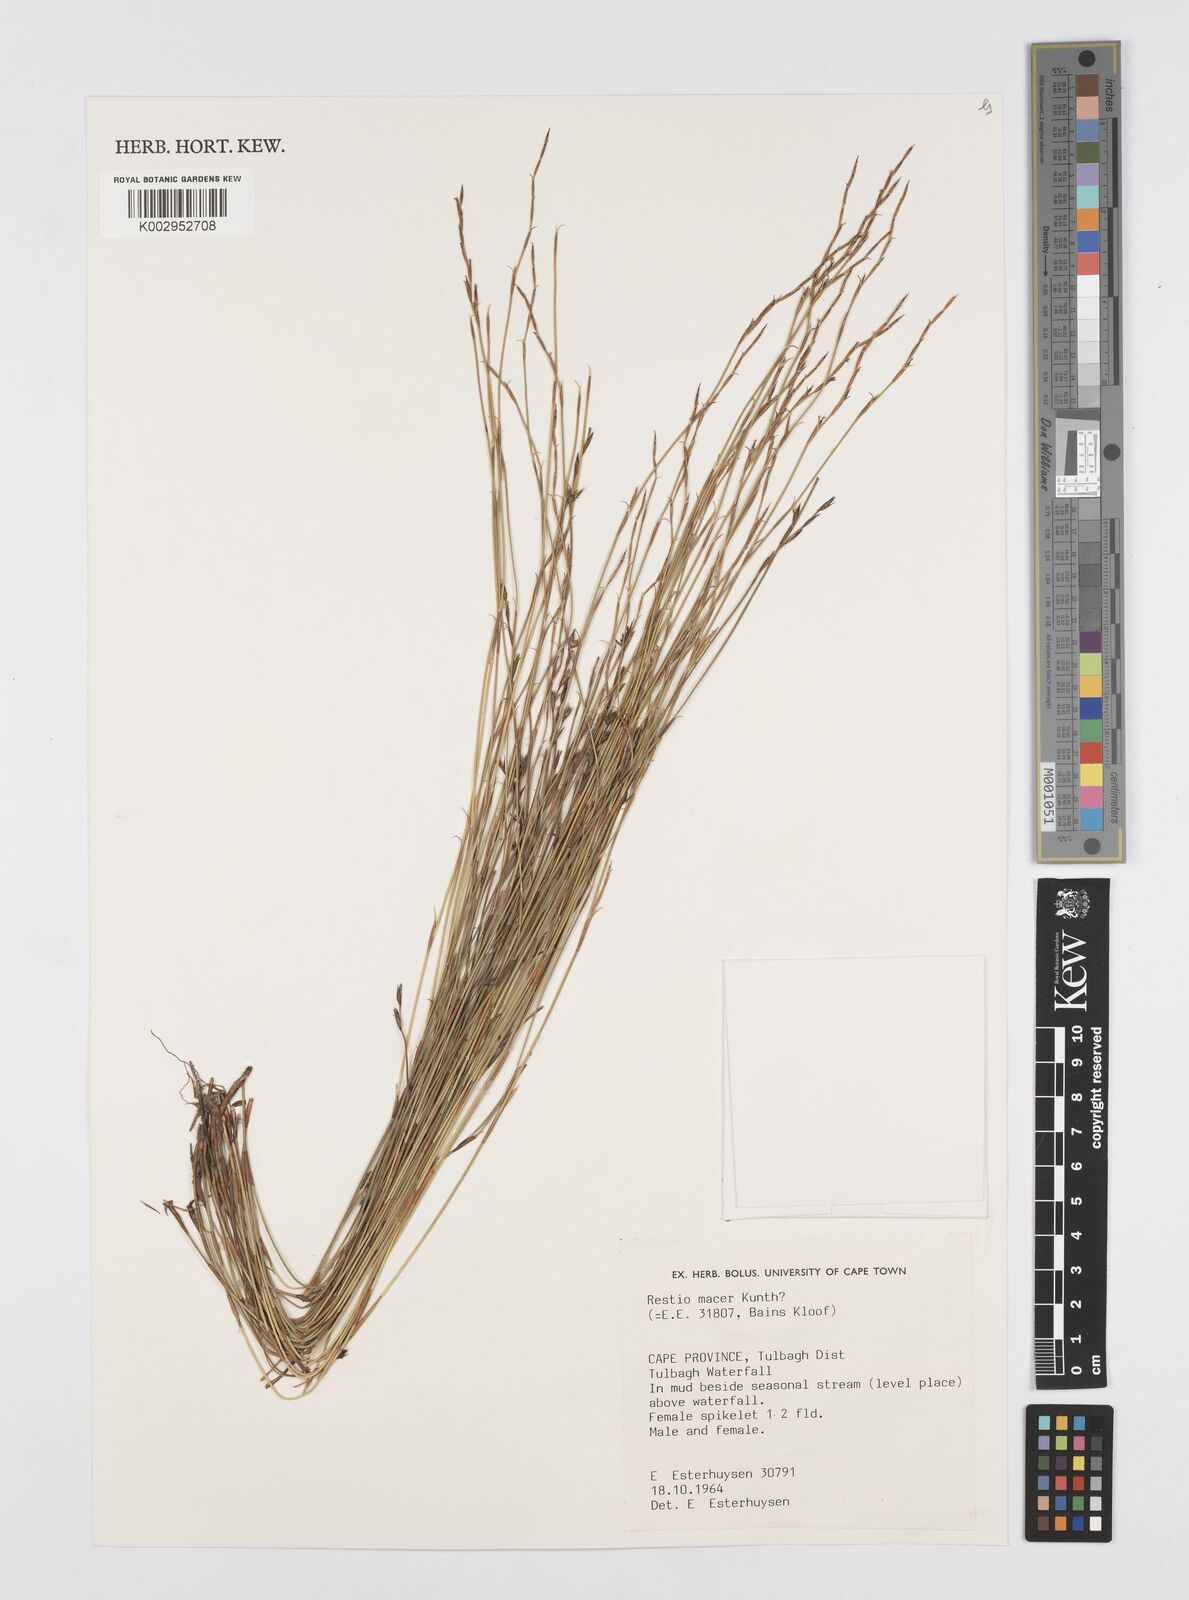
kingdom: Plantae
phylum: Tracheophyta
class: Liliopsida
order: Poales
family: Restionaceae
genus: Restio
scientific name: Restio macer
